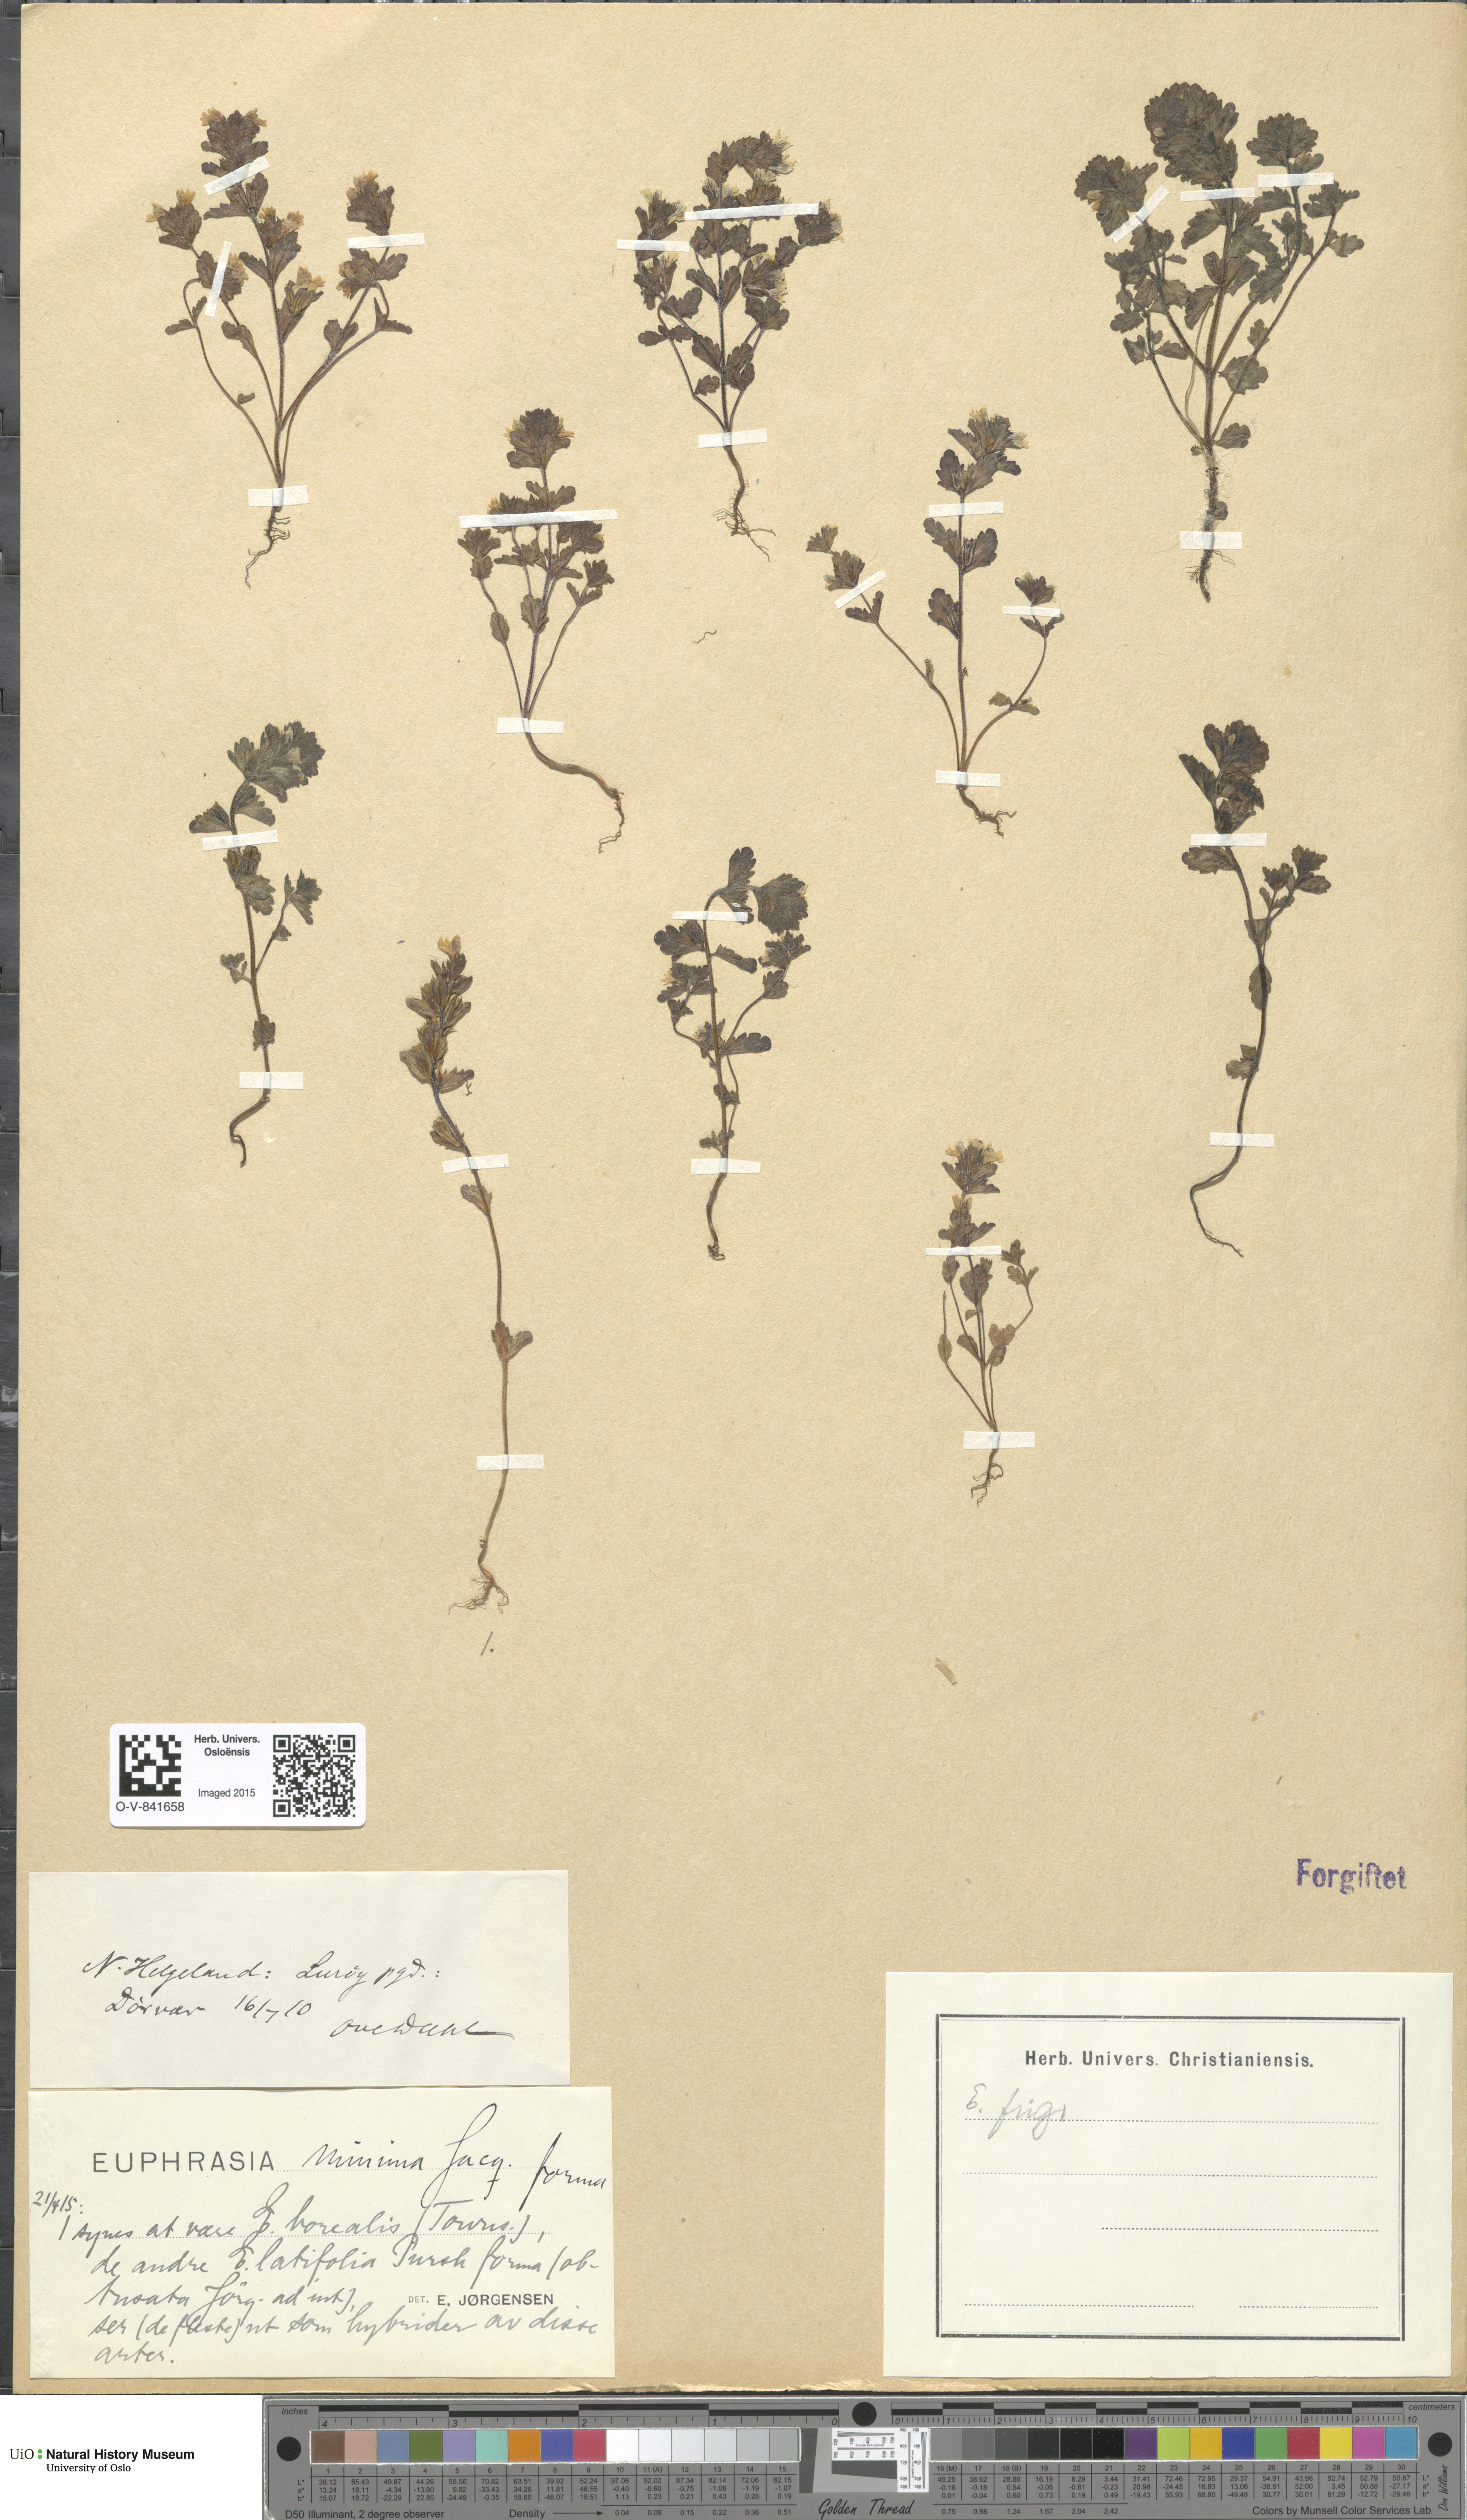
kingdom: Plantae
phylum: Tracheophyta
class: Magnoliopsida
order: Lamiales
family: Orobanchaceae
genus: Euphrasia
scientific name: Euphrasia wettsteinii
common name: Wettstein's eyebright
